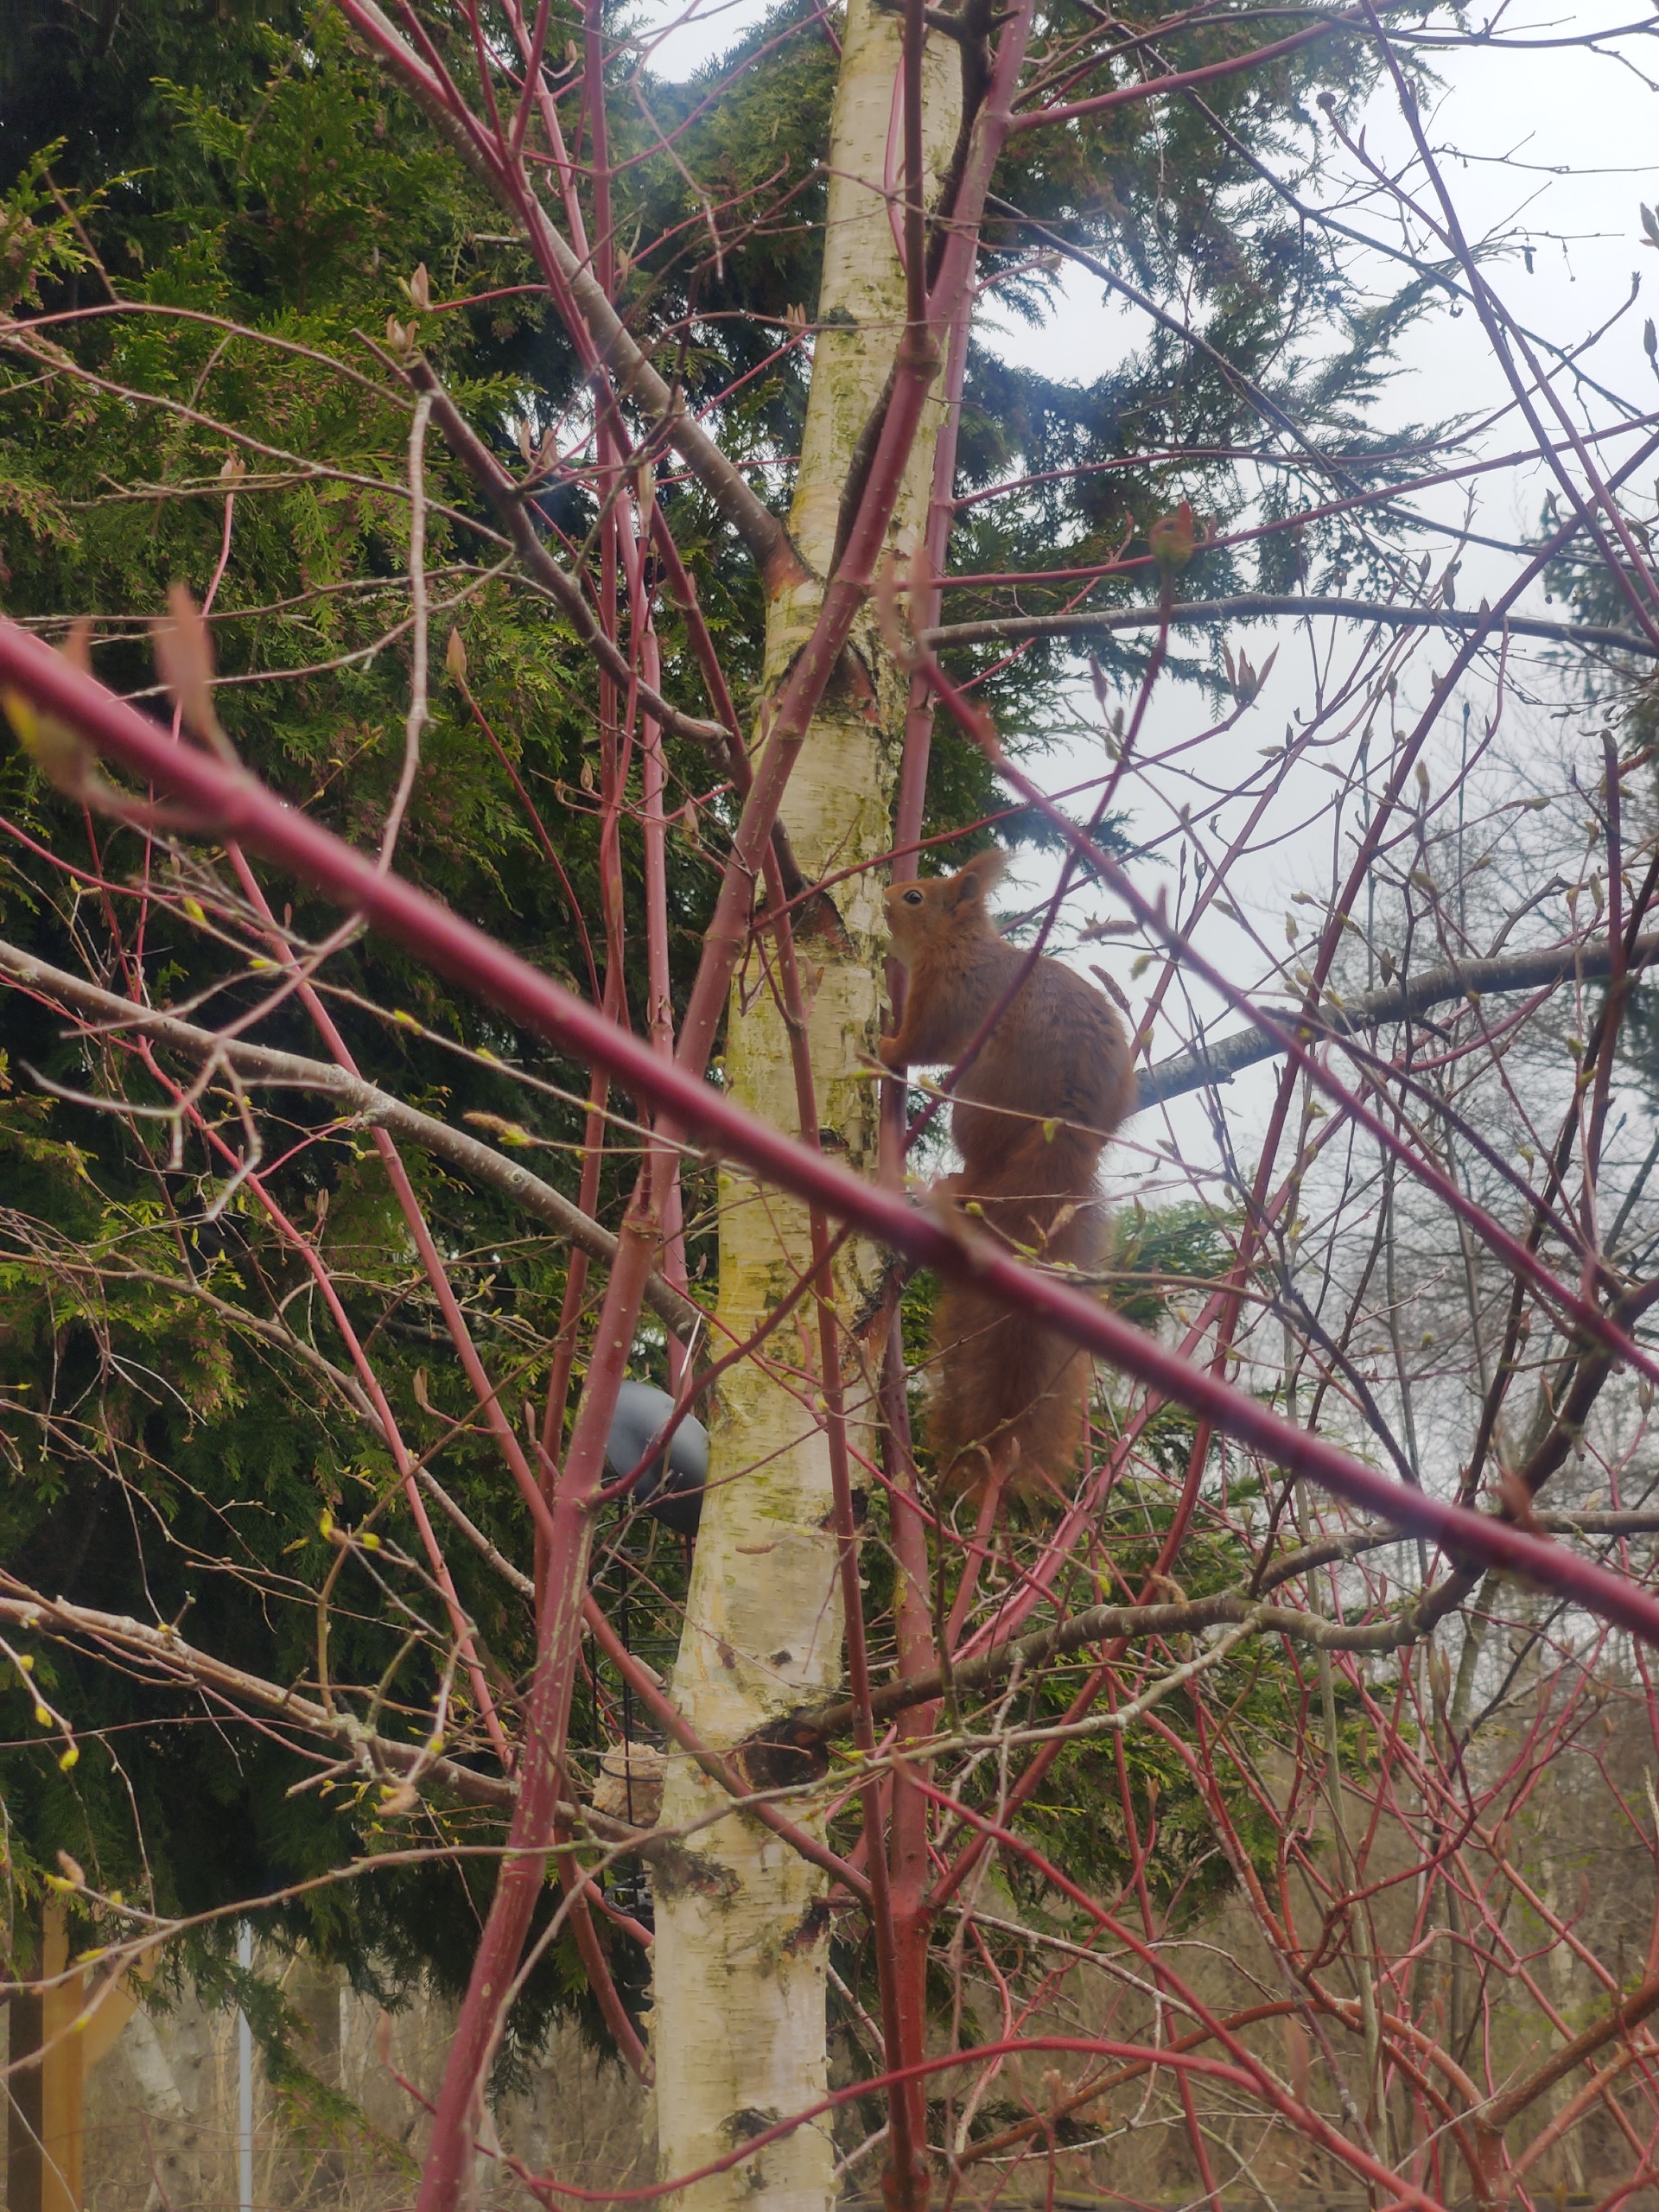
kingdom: Animalia
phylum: Chordata
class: Mammalia
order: Rodentia
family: Sciuridae
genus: Sciurus
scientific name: Sciurus vulgaris
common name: Egern
